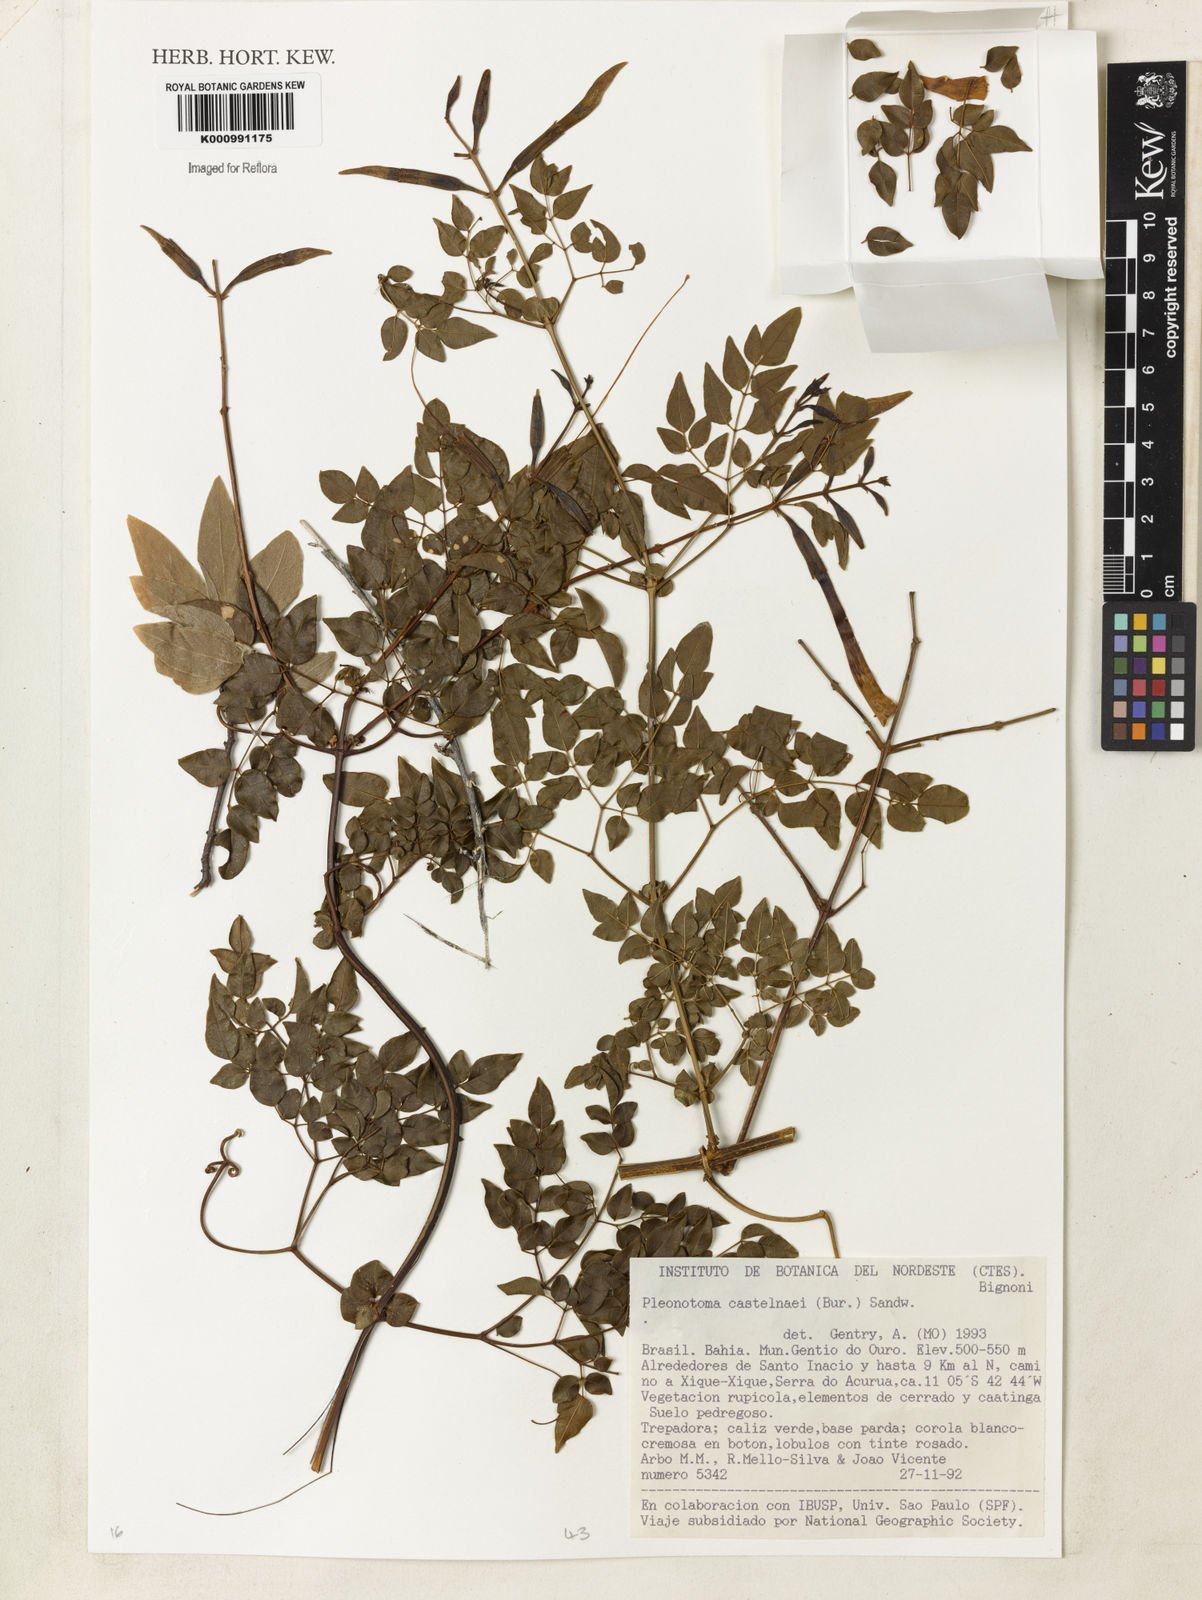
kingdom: Plantae
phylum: Tracheophyta
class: Magnoliopsida
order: Lamiales
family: Bignoniaceae
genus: Pleonotoma
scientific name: Pleonotoma castelnaei
